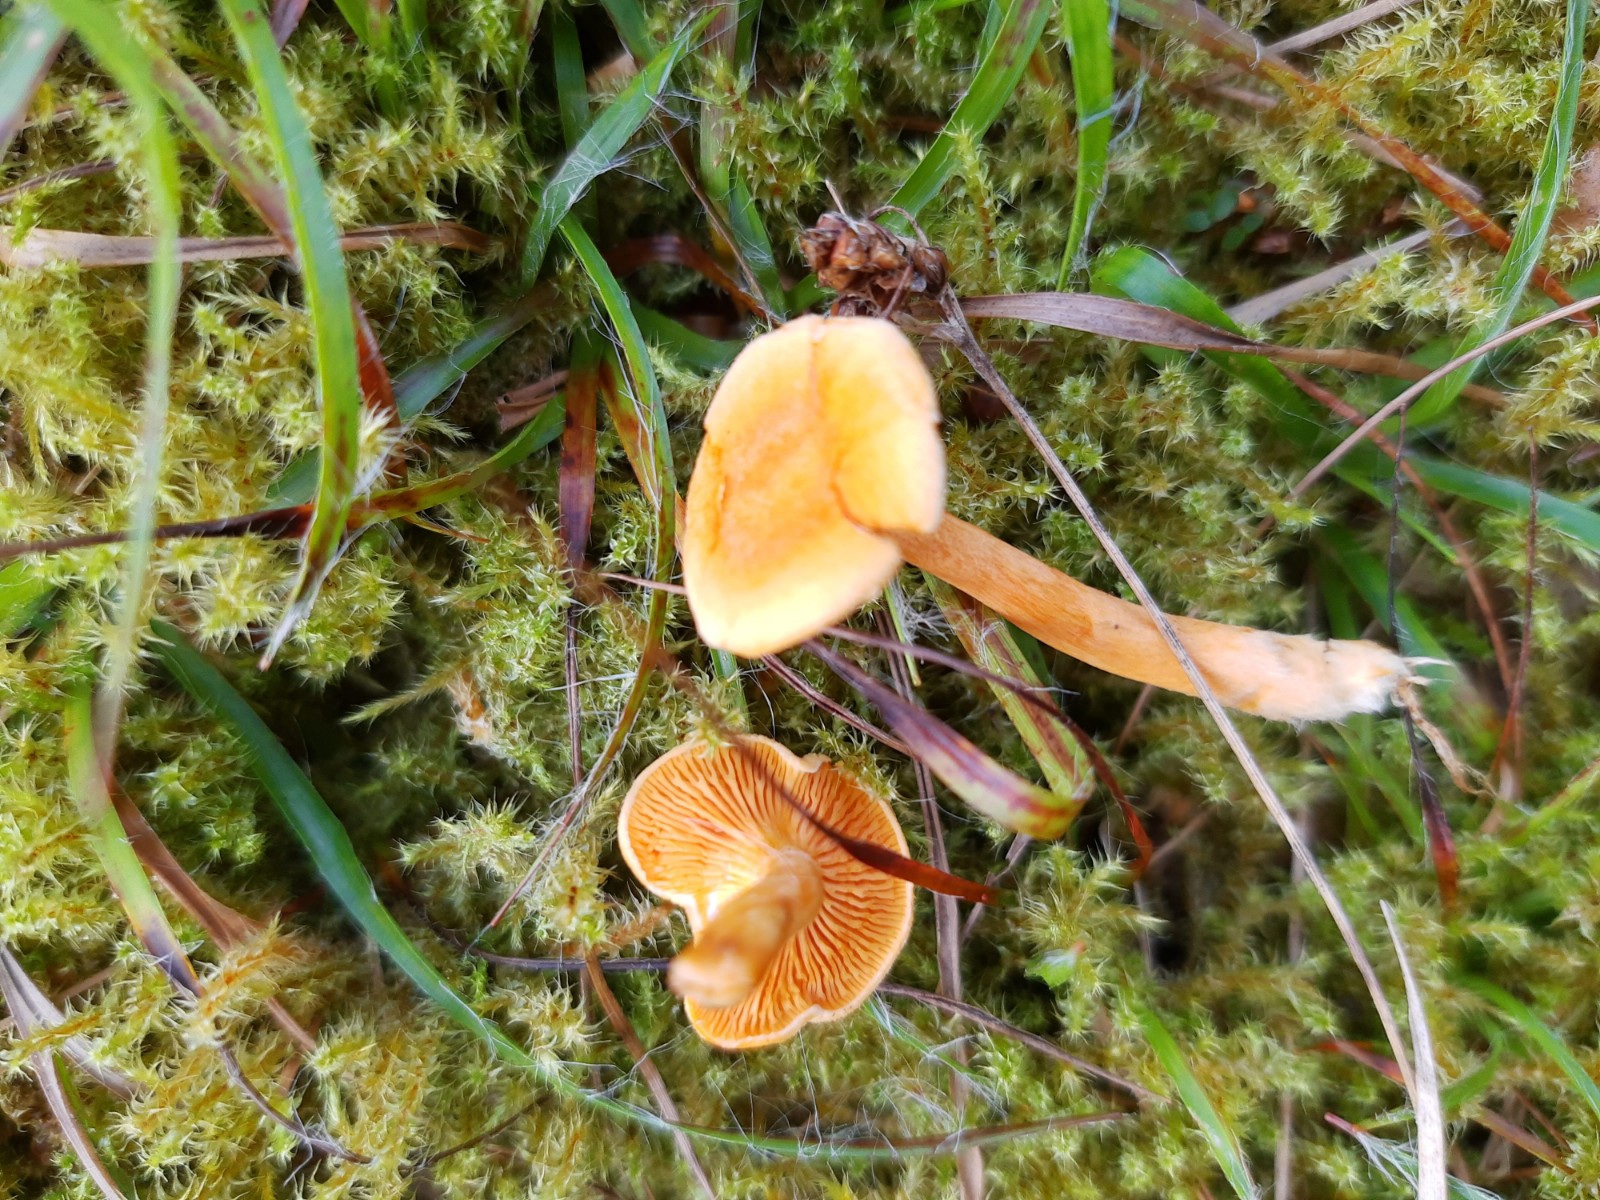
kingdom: Fungi
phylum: Basidiomycota
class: Agaricomycetes
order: Boletales
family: Hygrophoropsidaceae
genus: Hygrophoropsis
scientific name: Hygrophoropsis aurantiaca
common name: almindelig orangekantarel
